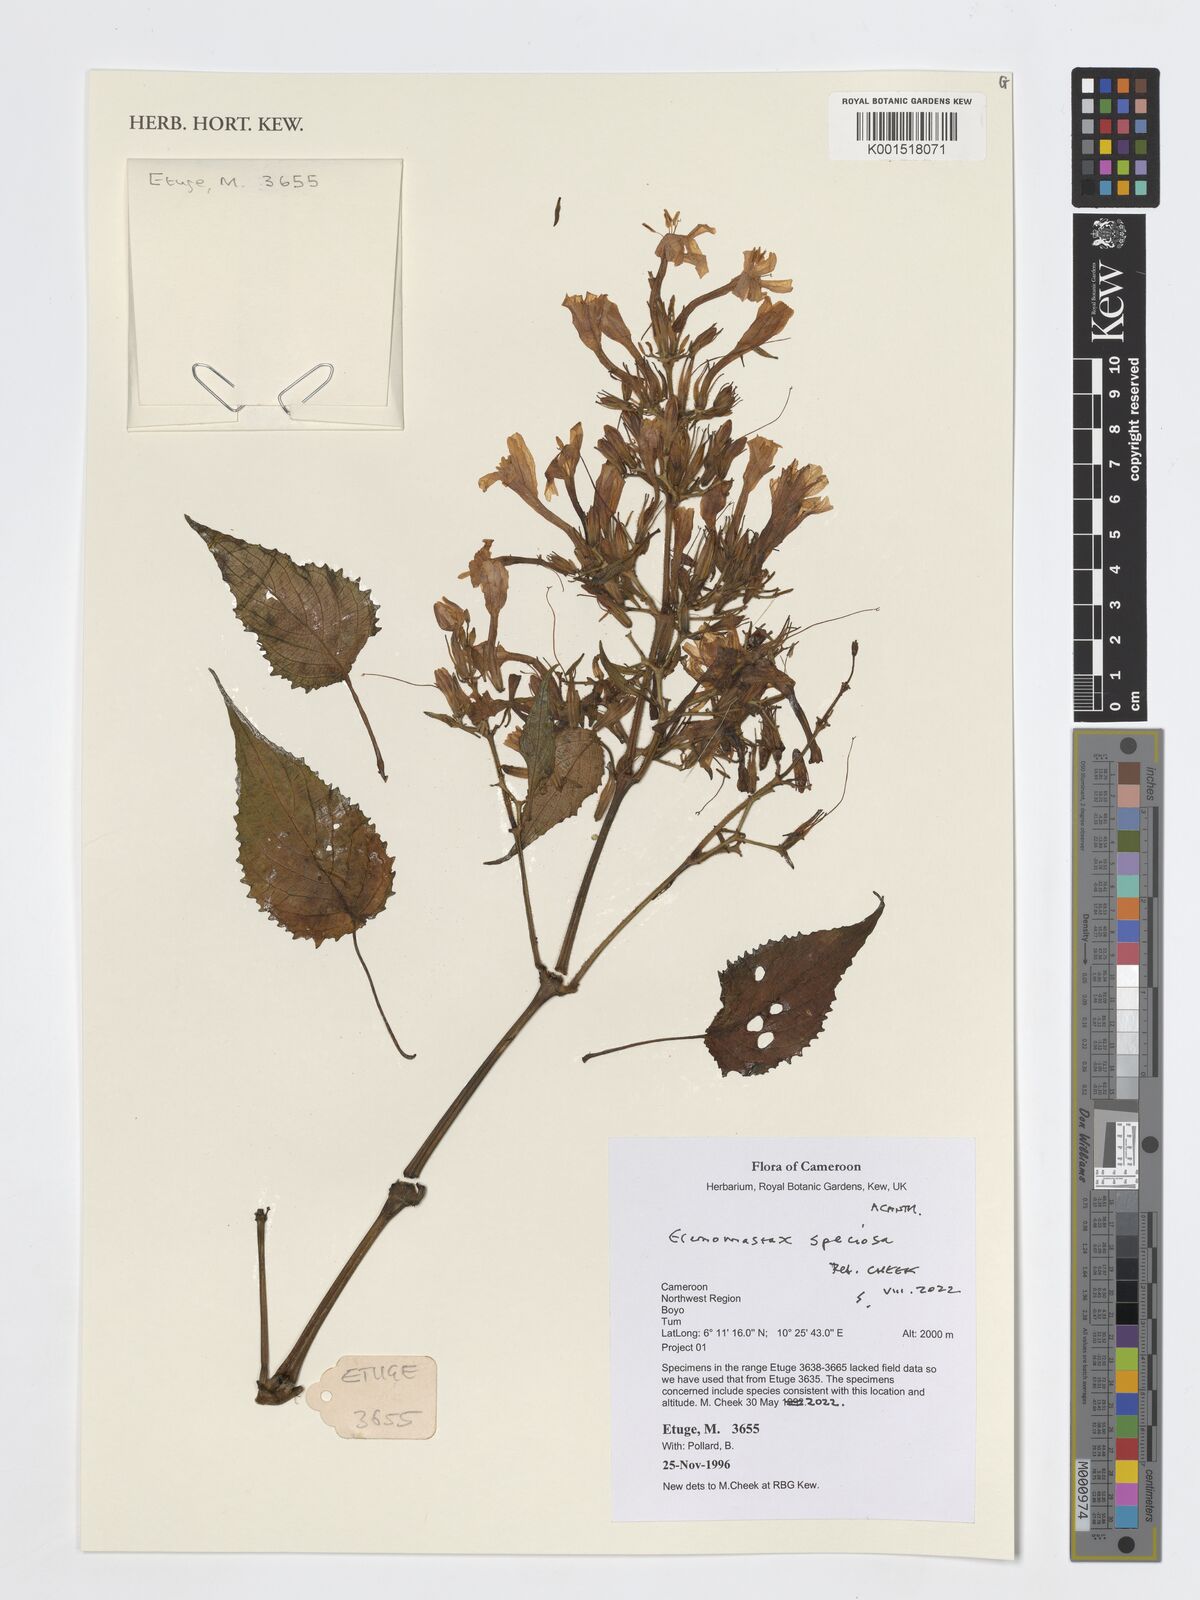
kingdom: Plantae
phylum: Tracheophyta
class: Magnoliopsida
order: Lamiales
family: Acanthaceae
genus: Eremomastax
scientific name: Eremomastax speciosa
